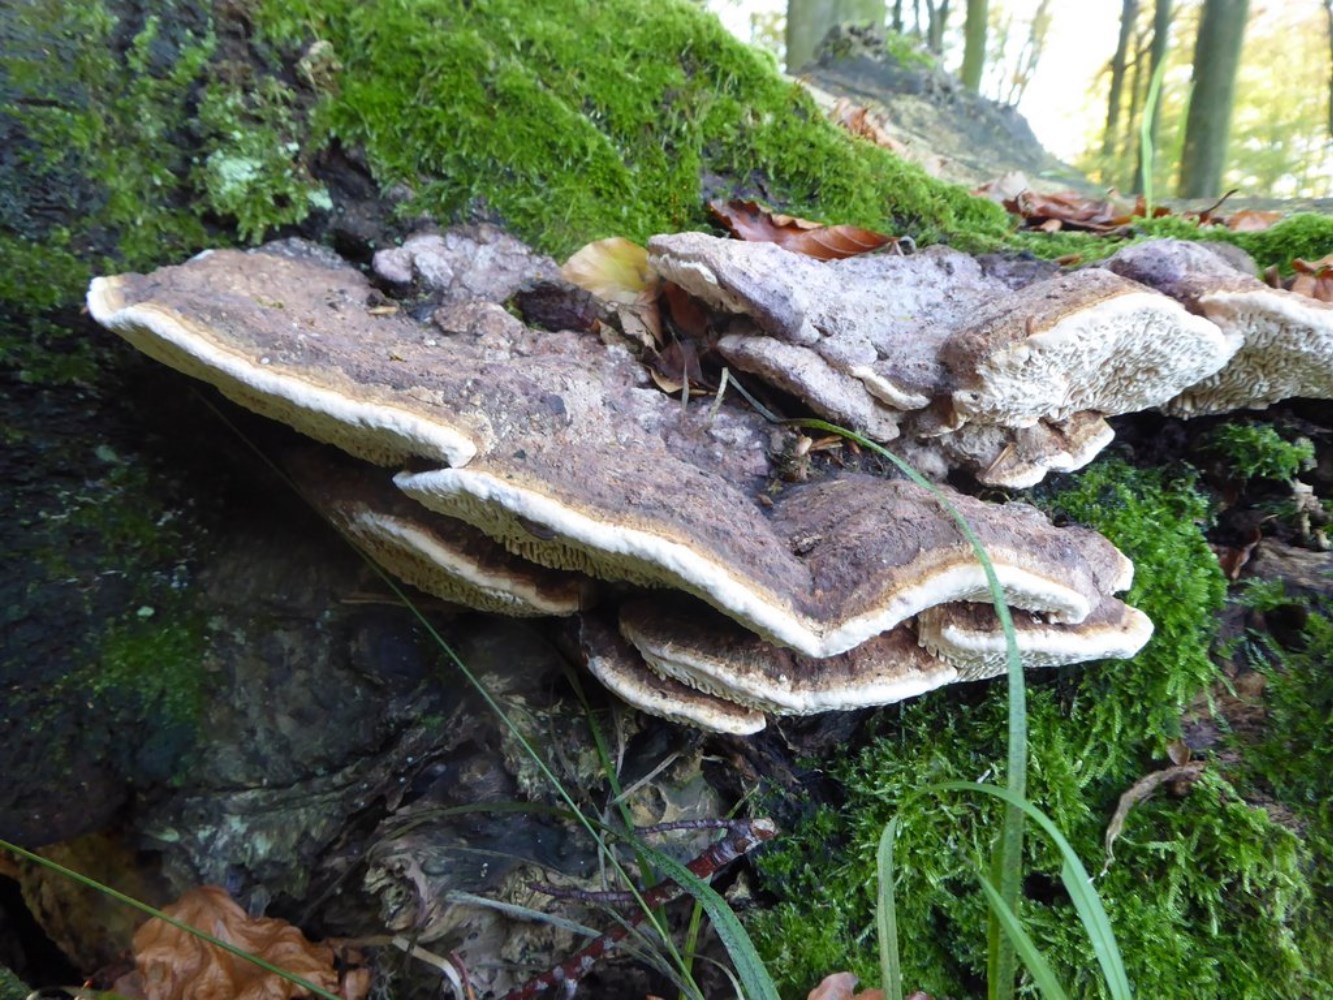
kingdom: Fungi
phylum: Basidiomycota
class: Agaricomycetes
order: Polyporales
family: Fomitopsidaceae
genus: Daedalea
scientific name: Daedalea quercina
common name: ege-labyrintsvamp
